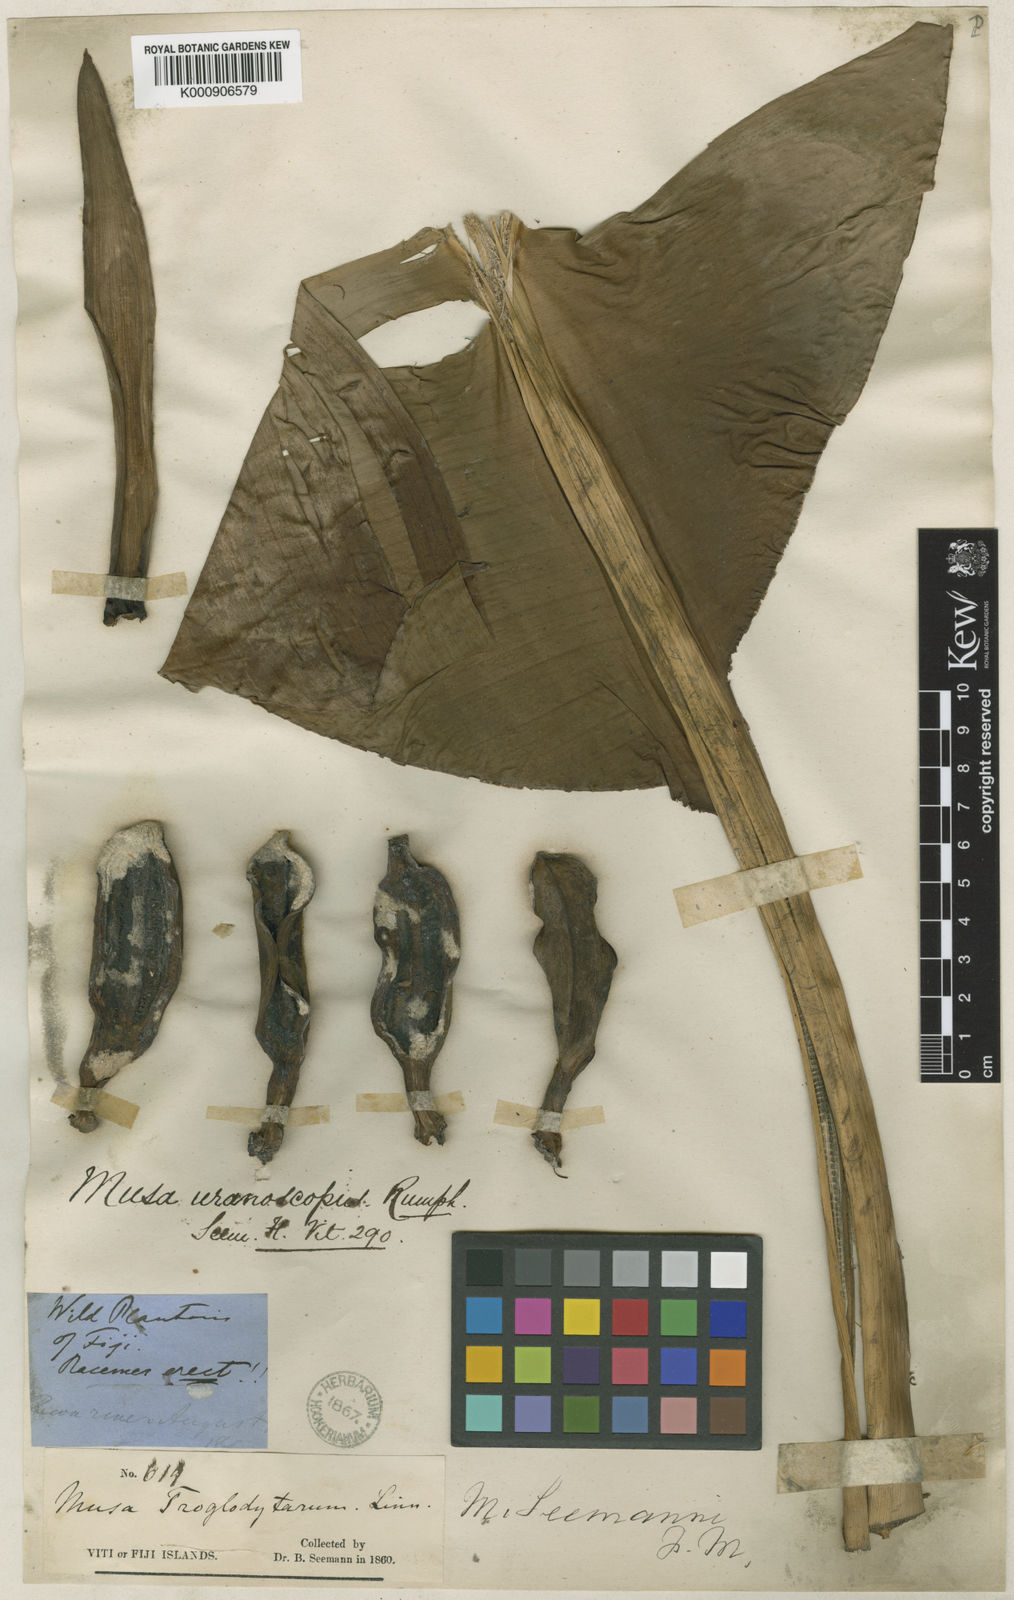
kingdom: Plantae
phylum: Tracheophyta
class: Liliopsida
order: Zingiberales
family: Musaceae
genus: Musa
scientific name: Musa troglodytarum
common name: Fe'i banana
